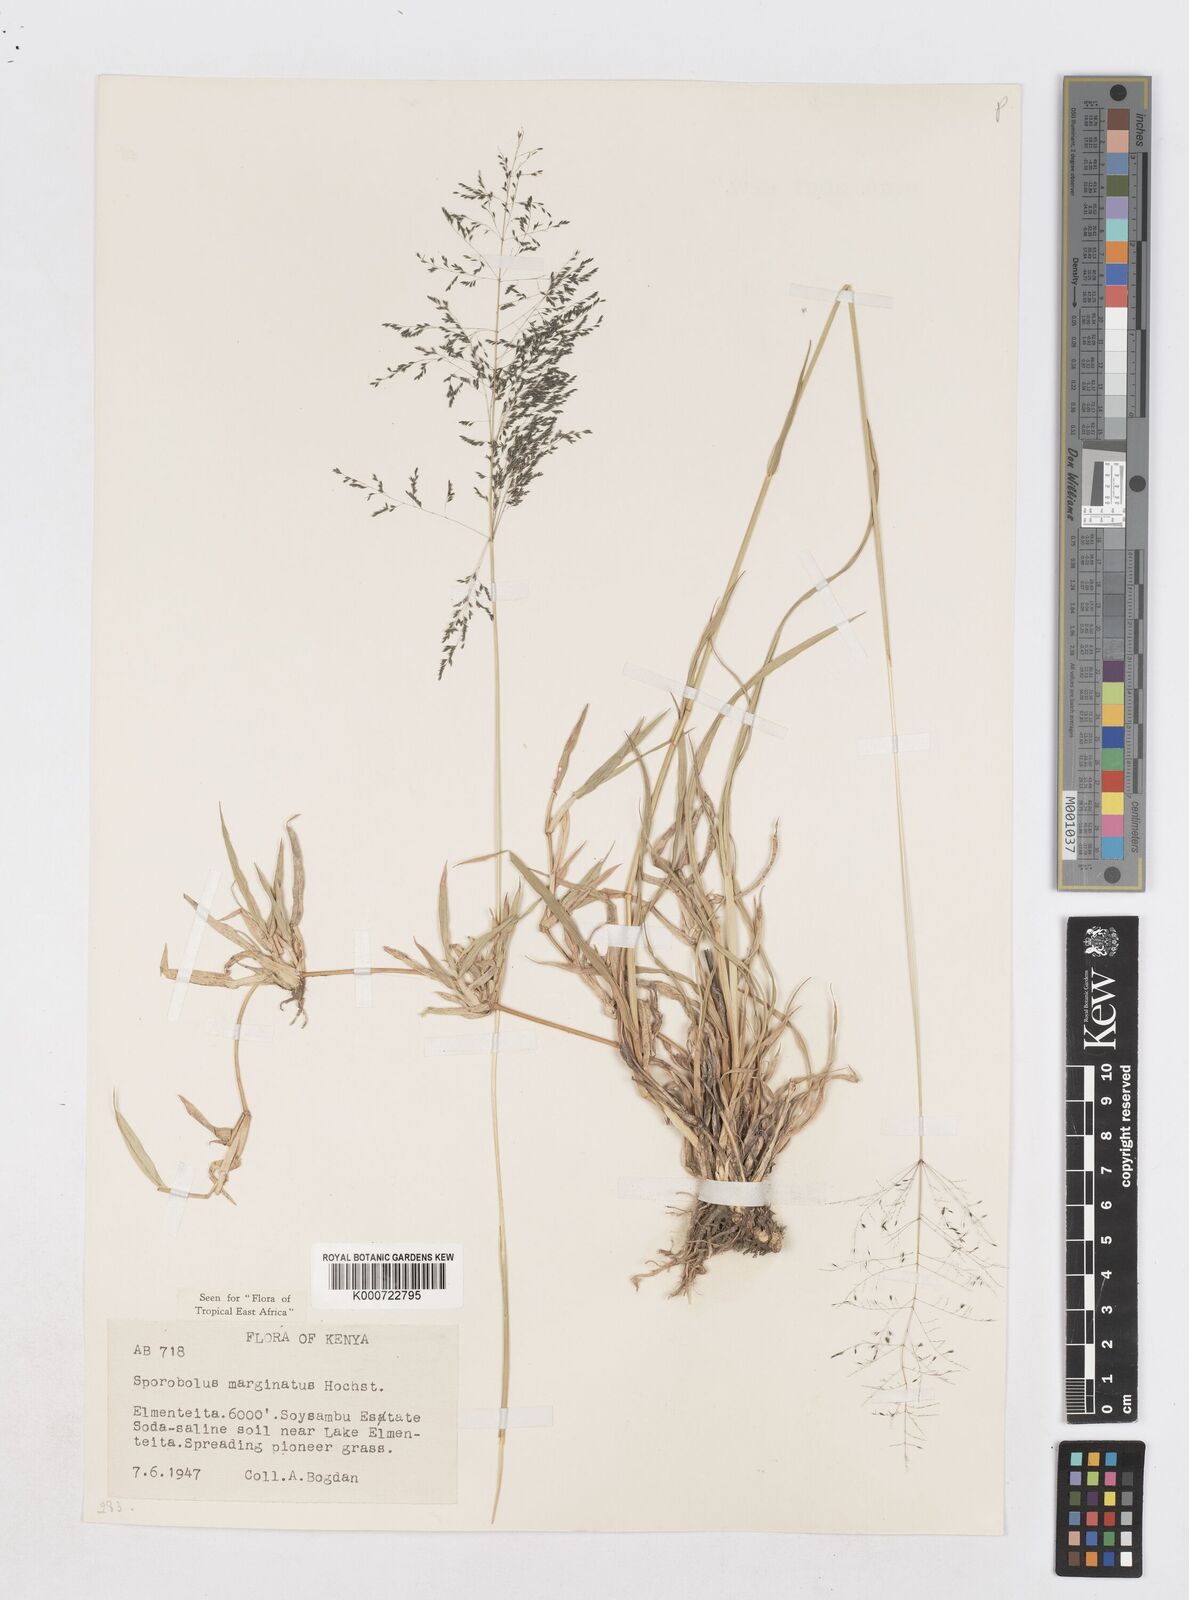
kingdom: Plantae
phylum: Tracheophyta
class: Liliopsida
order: Poales
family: Poaceae
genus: Sporobolus
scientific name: Sporobolus ioclados
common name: Pan dropseed
